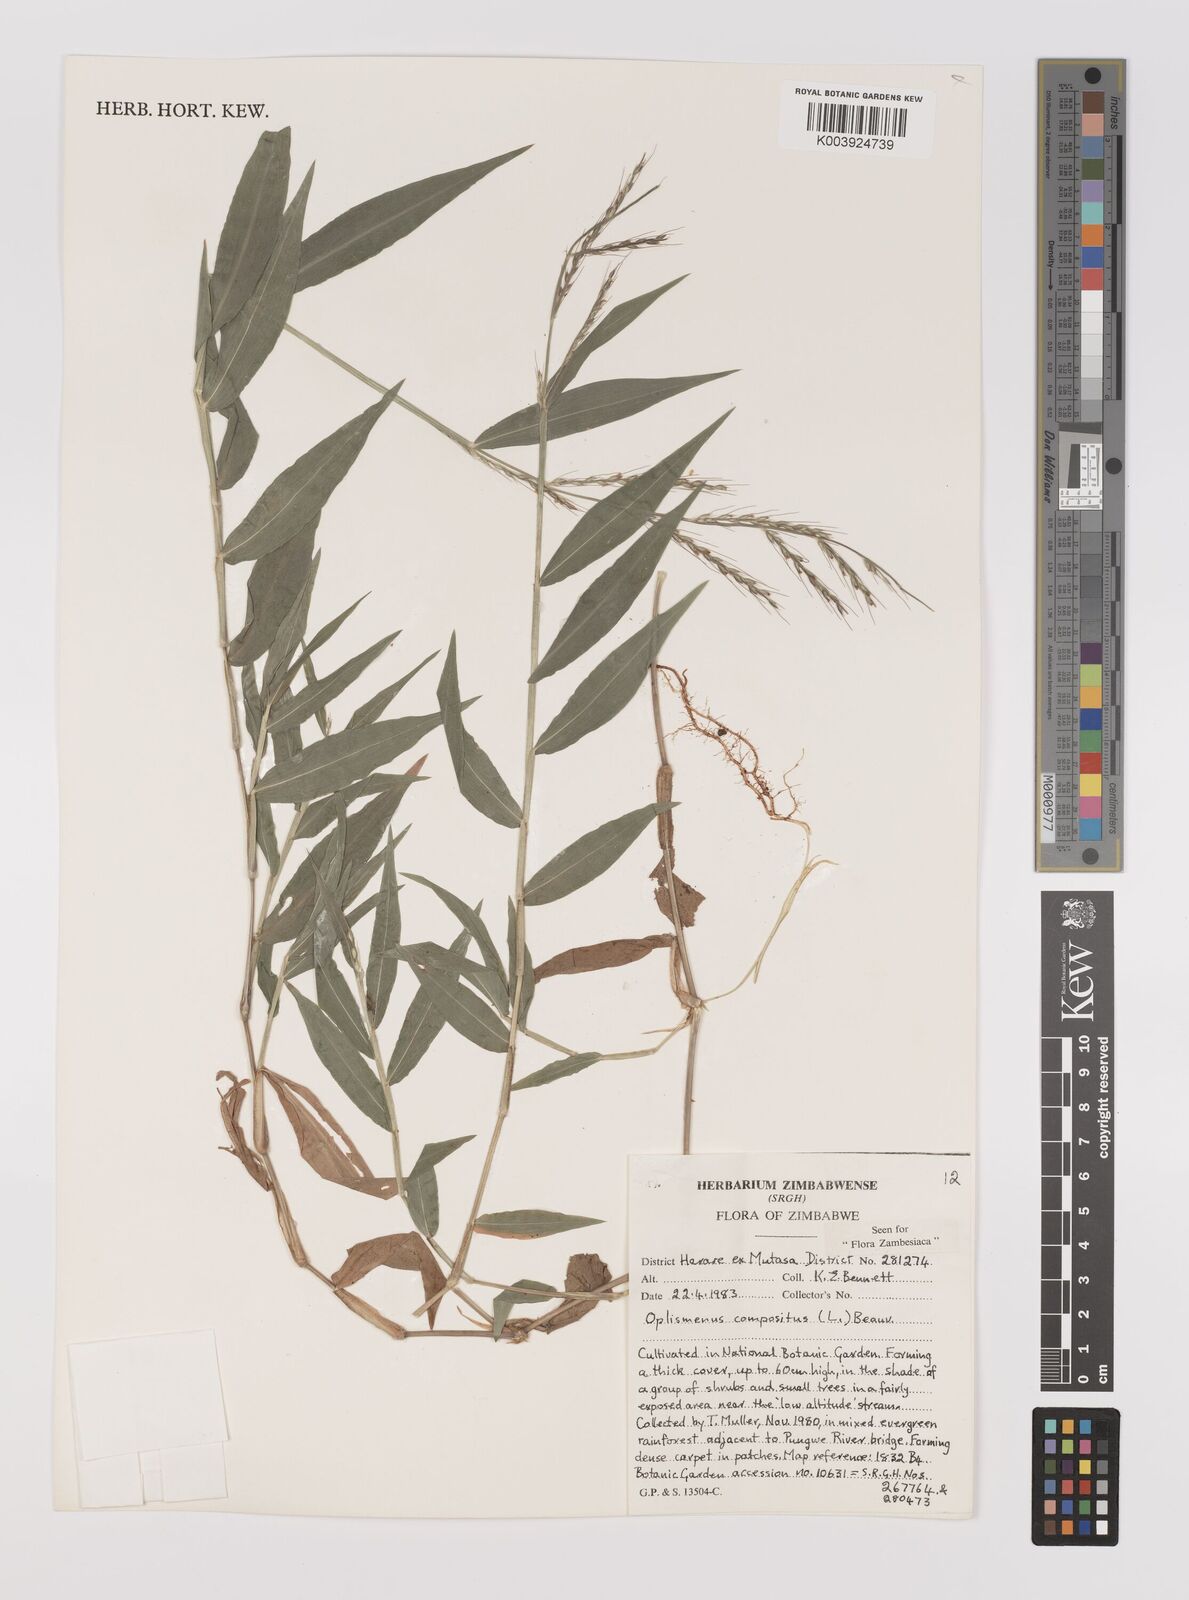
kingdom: Plantae
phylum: Tracheophyta
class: Liliopsida
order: Poales
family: Poaceae
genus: Oplismenus
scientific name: Oplismenus compositus
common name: Running mountain grass
